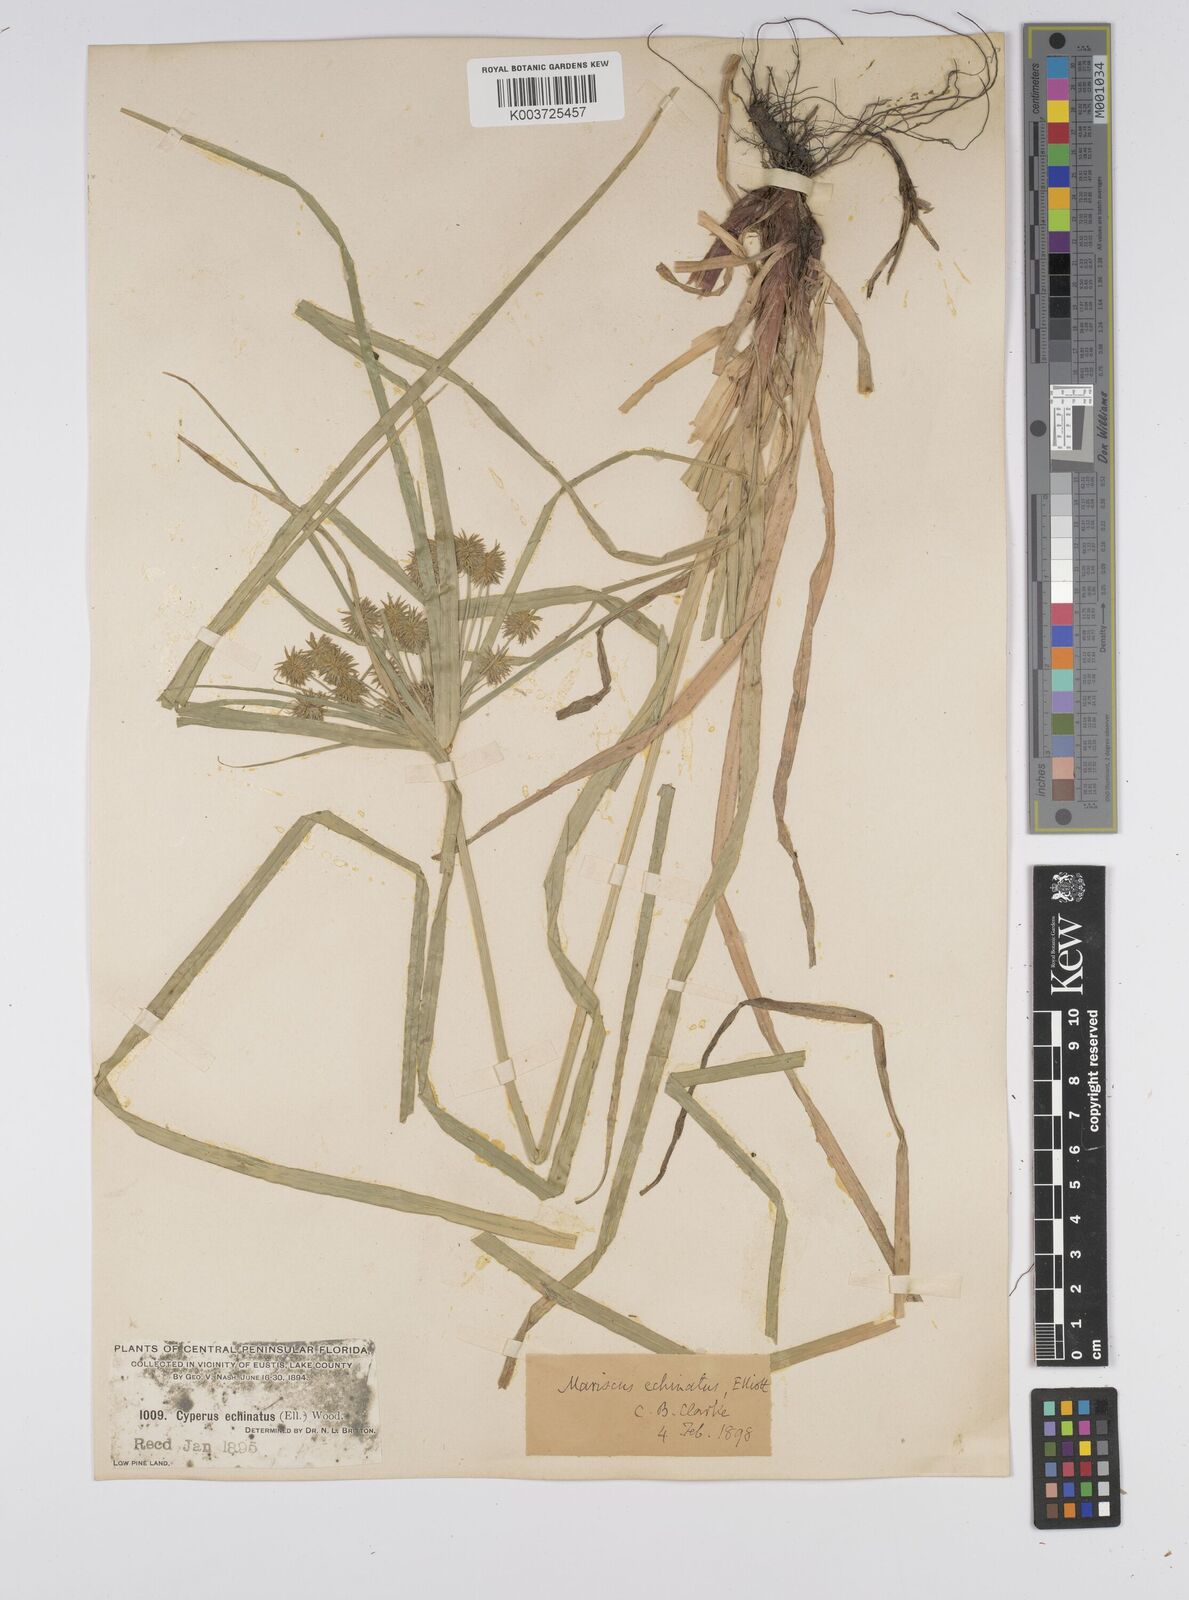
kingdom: Plantae
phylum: Tracheophyta
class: Liliopsida
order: Poales
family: Cyperaceae
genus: Cyperus
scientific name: Cyperus luzulae
